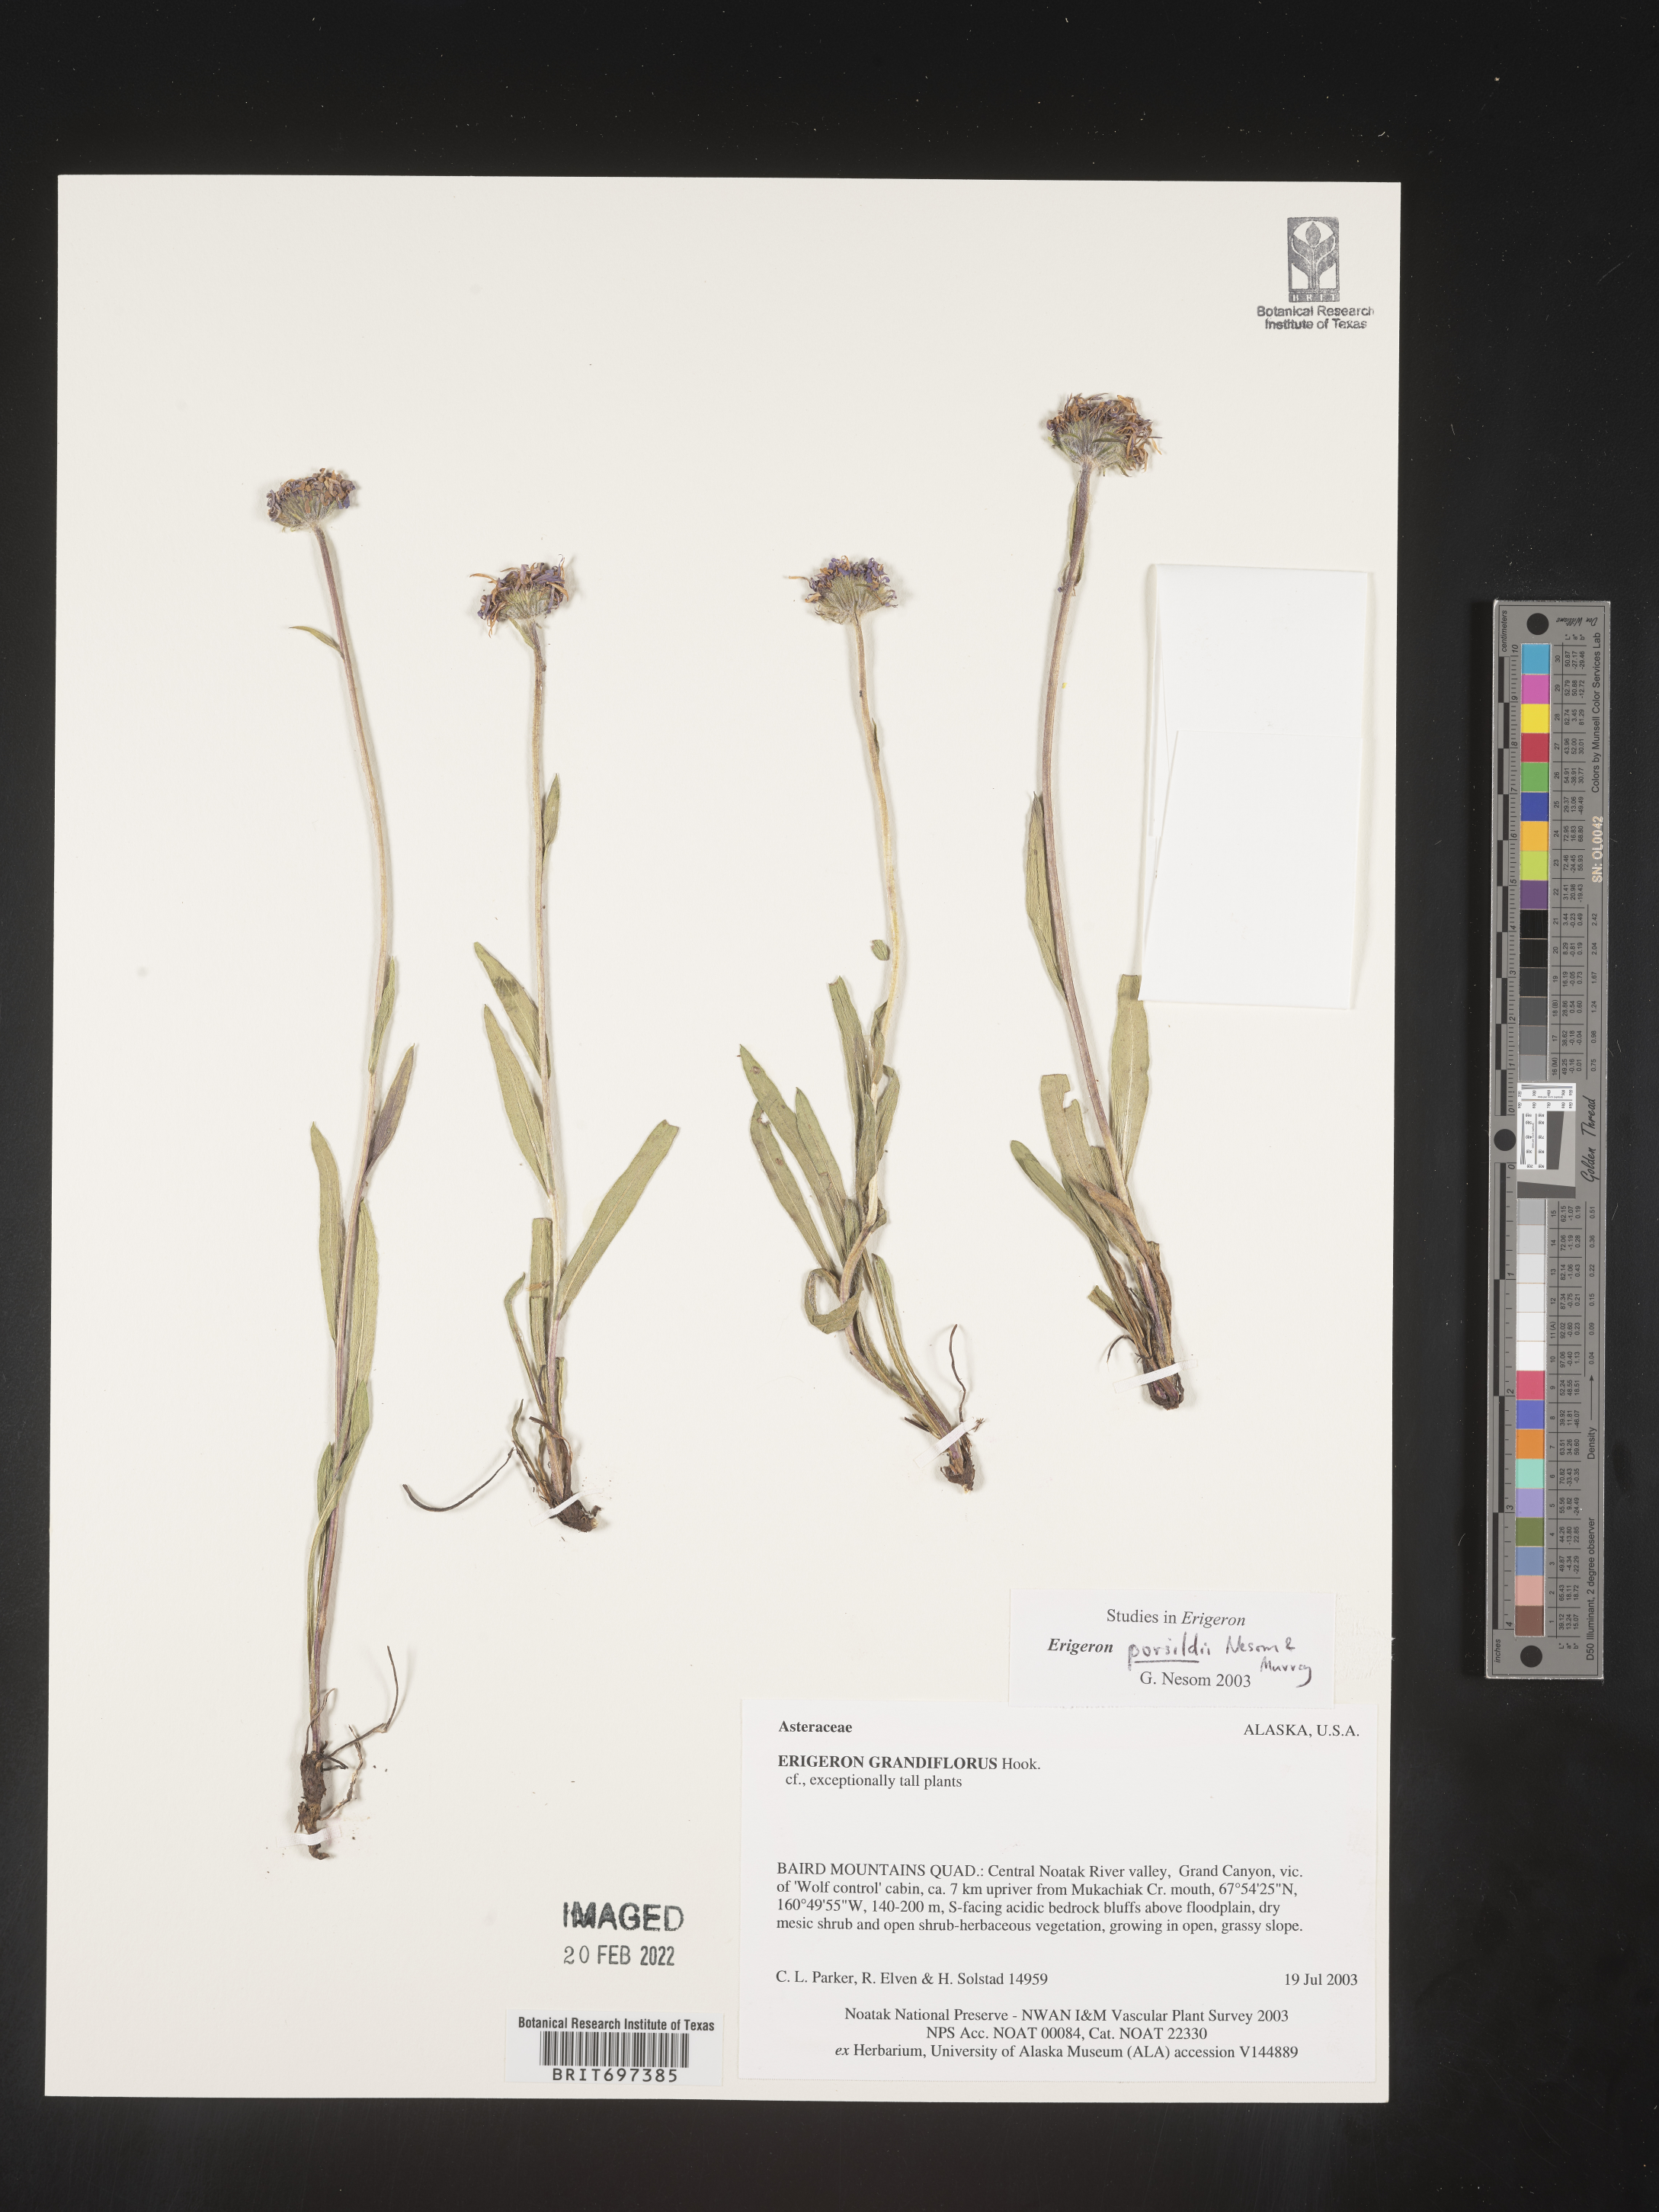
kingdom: Plantae
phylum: Tracheophyta
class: Magnoliopsida
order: Asterales
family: Asteraceae
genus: Erigeron
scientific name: Erigeron porsildii
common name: Porsild's arctic fleabane
